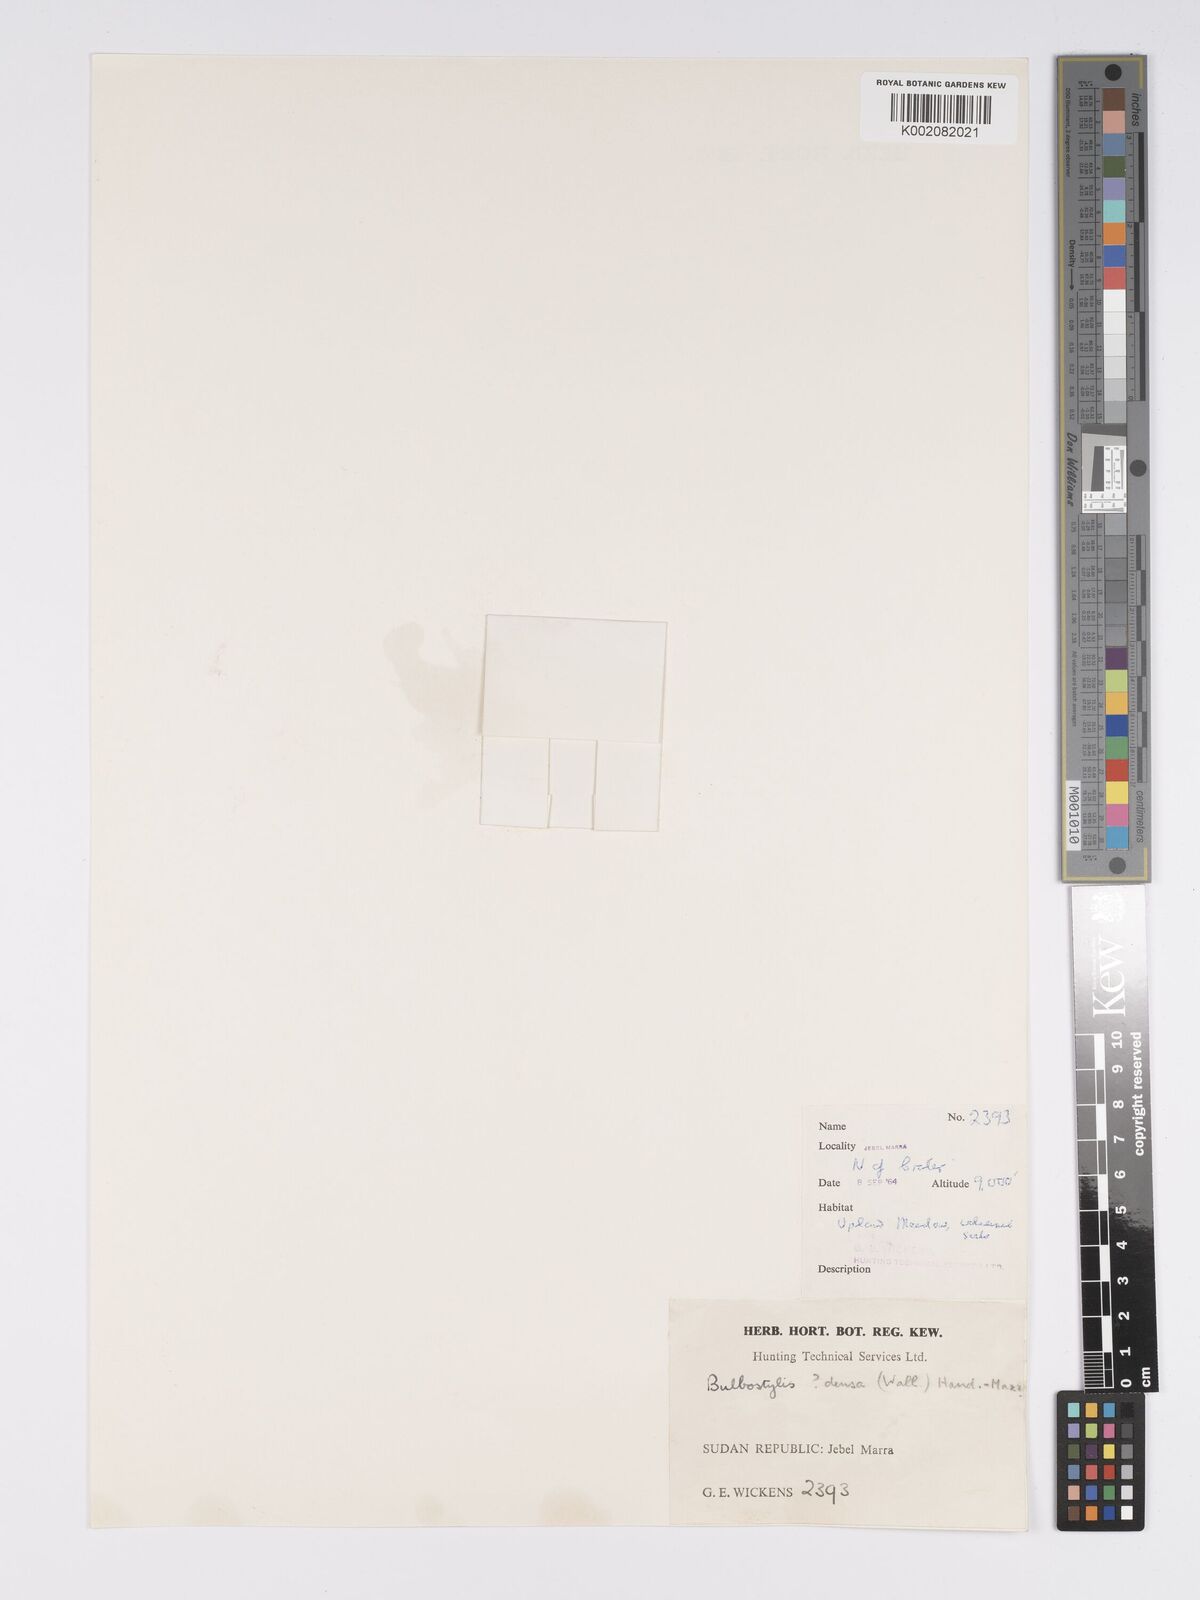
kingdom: Plantae
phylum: Tracheophyta
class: Liliopsida
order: Poales
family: Cyperaceae
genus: Bulbostylis
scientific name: Bulbostylis capillaris
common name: Densetuft hairsedge
